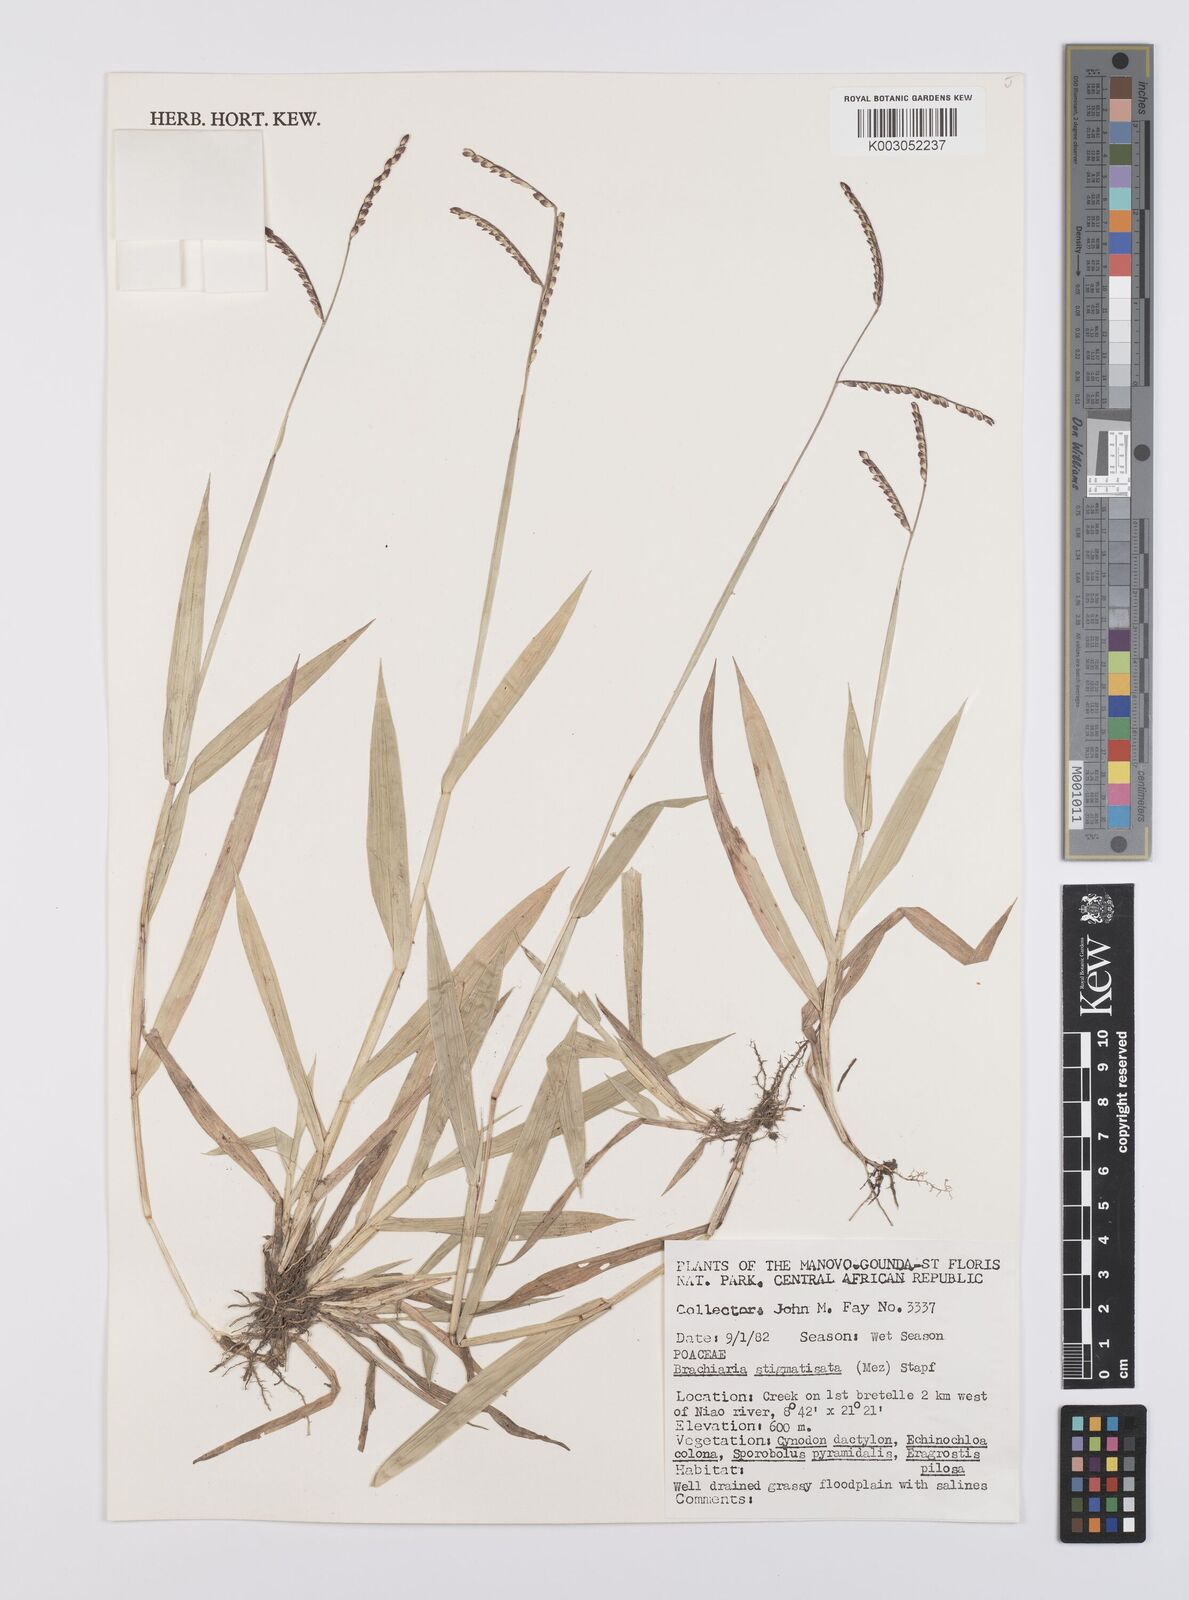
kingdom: Plantae
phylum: Tracheophyta
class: Liliopsida
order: Poales
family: Poaceae
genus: Urochloa
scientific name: Urochloa stigmatisata
